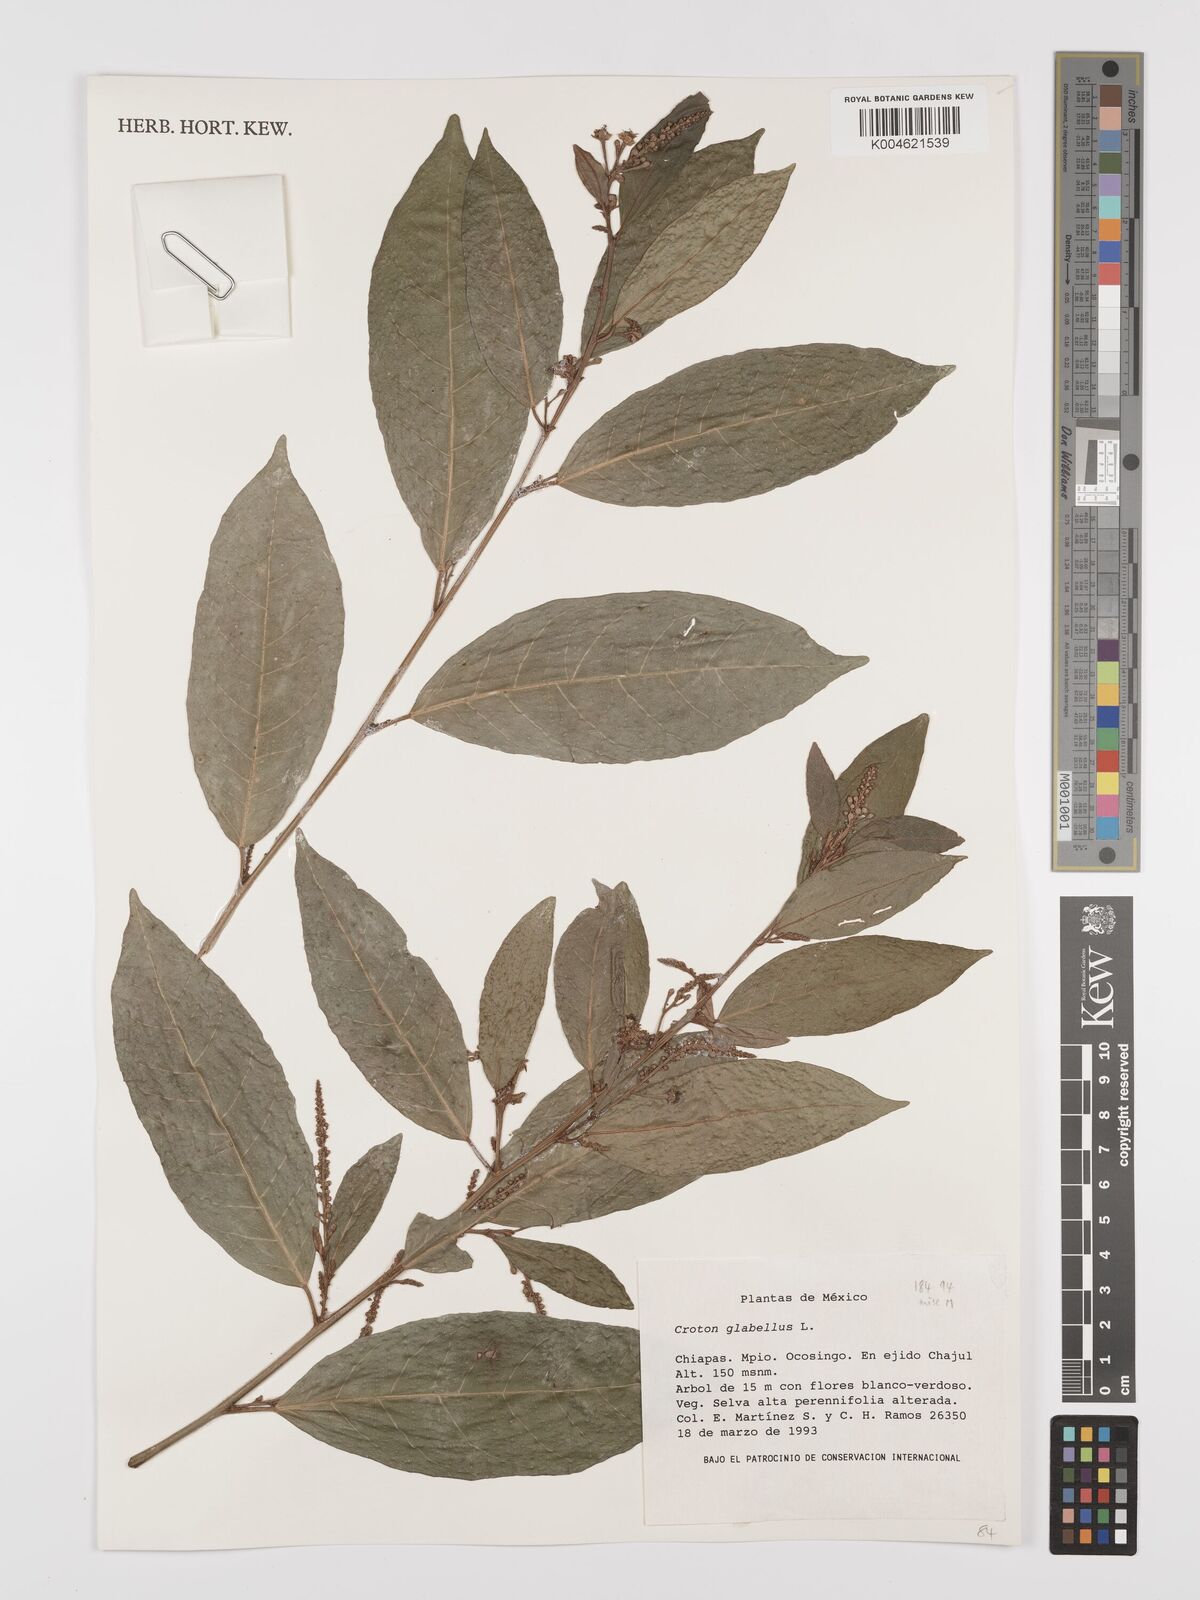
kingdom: Plantae
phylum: Tracheophyta
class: Magnoliopsida
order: Malpighiales
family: Euphorbiaceae
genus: Croton
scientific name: Croton glabellus
